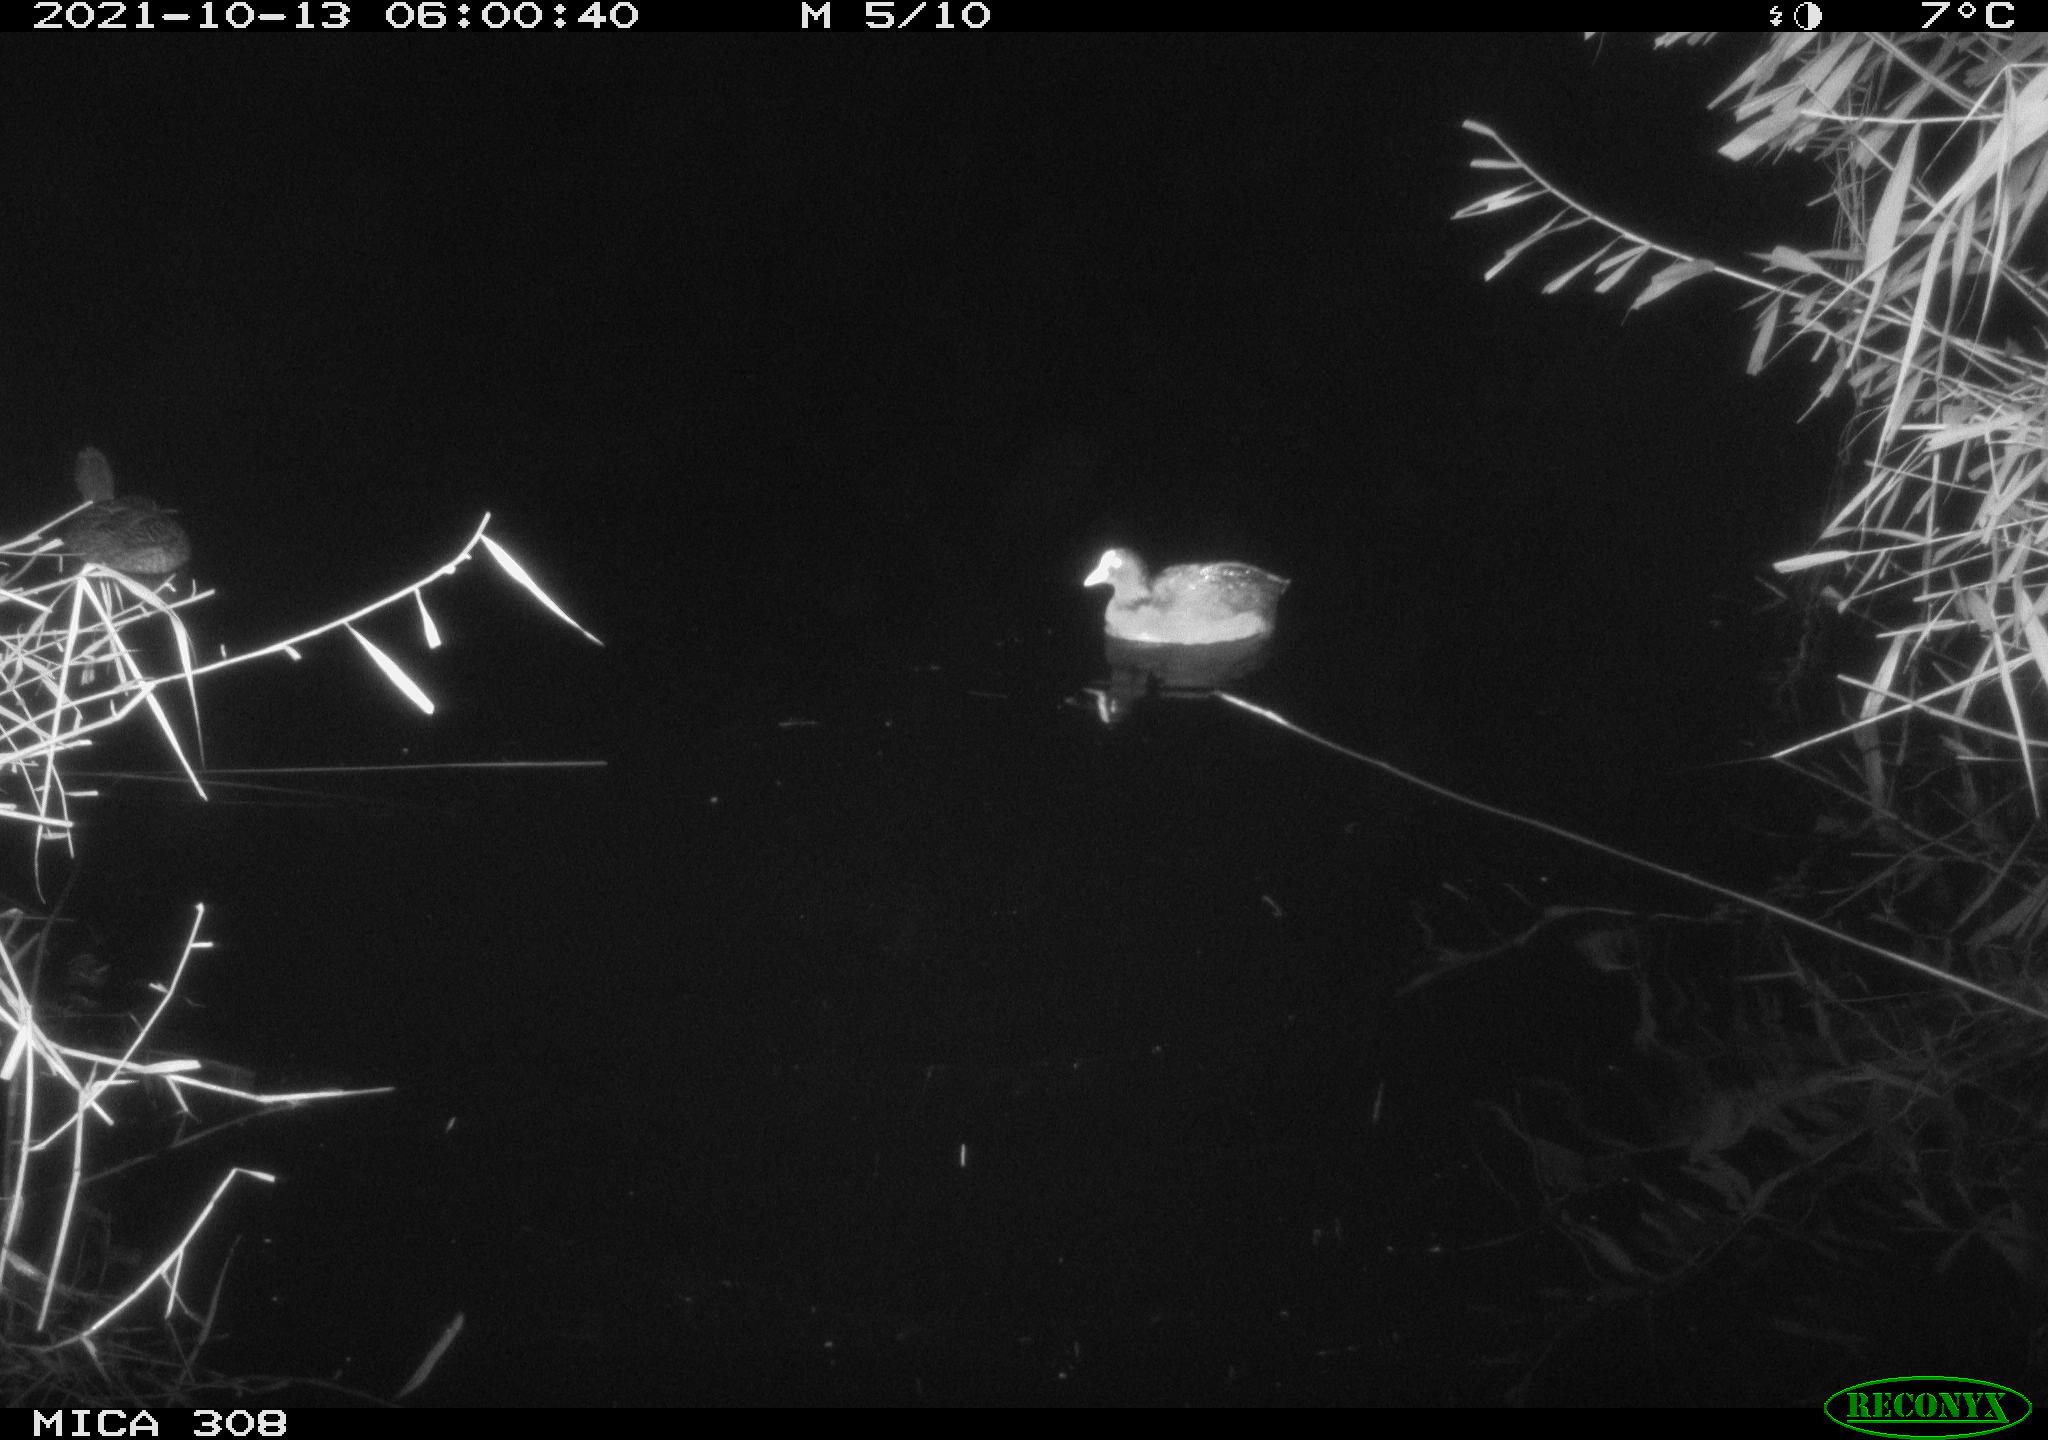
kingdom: Animalia
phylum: Chordata
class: Aves
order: Anseriformes
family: Anatidae
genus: Anas
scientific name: Anas platyrhynchos
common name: Mallard
